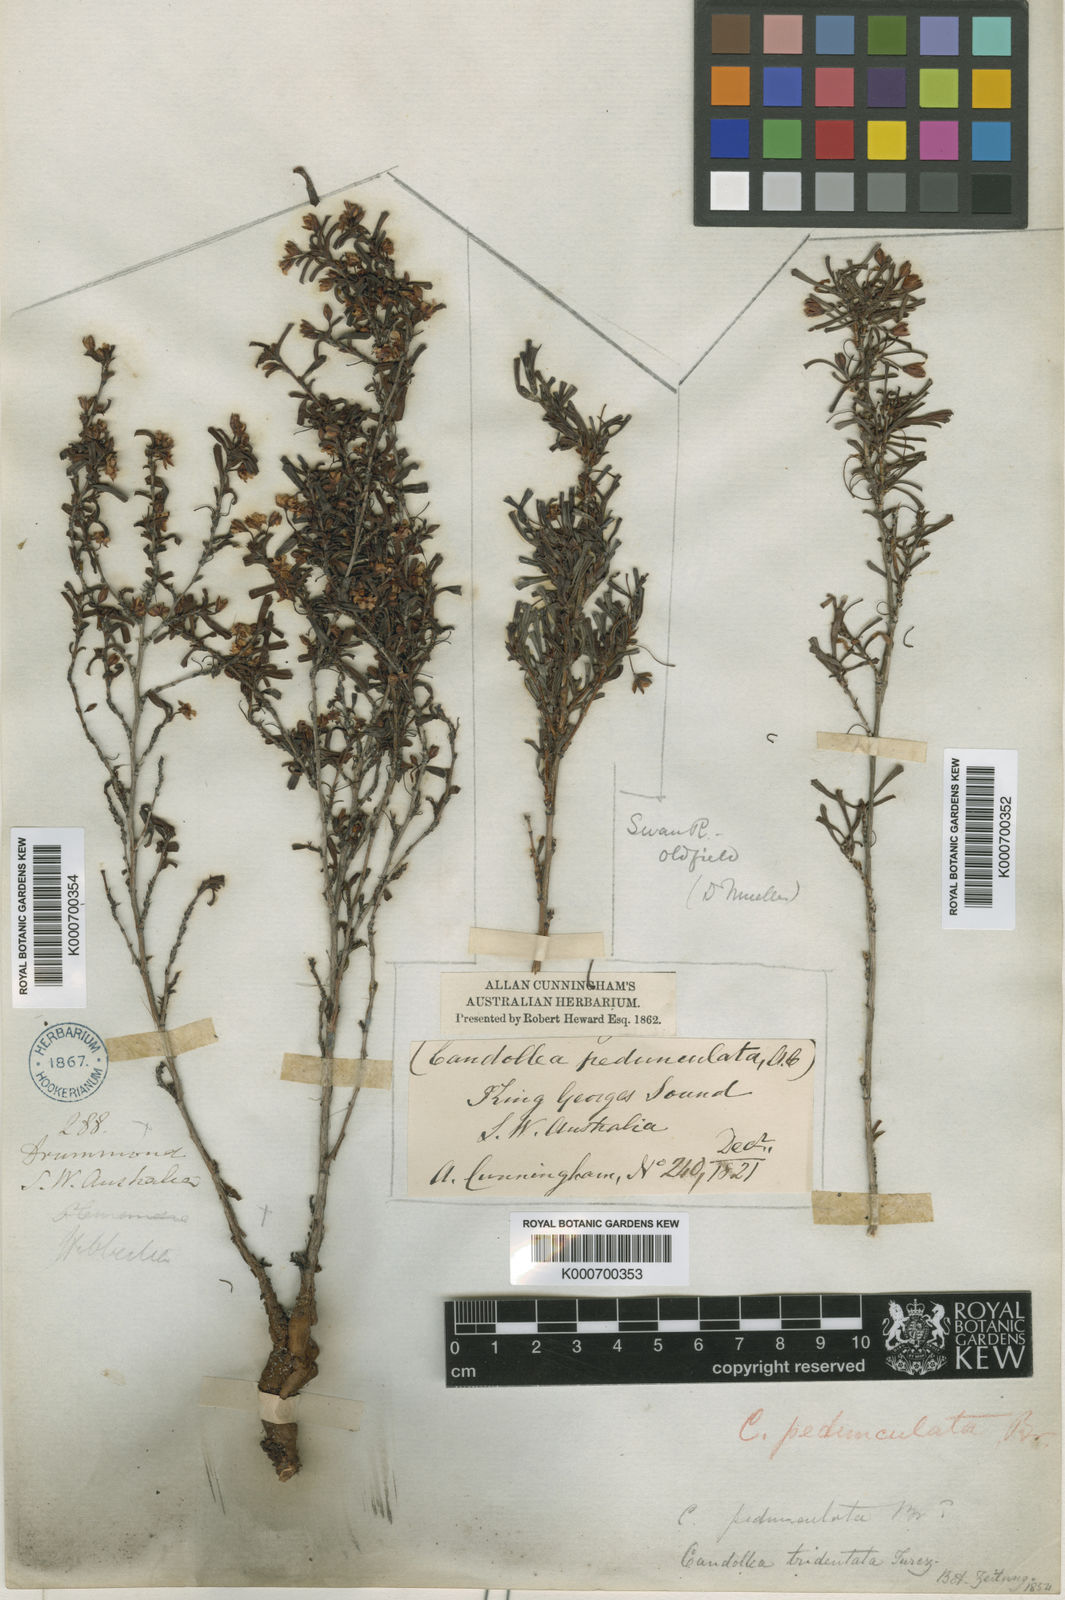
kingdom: Plantae
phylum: Tracheophyta
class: Magnoliopsida
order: Dilleniales
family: Dilleniaceae
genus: Hibbertia
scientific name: Hibbertia pedunculata
